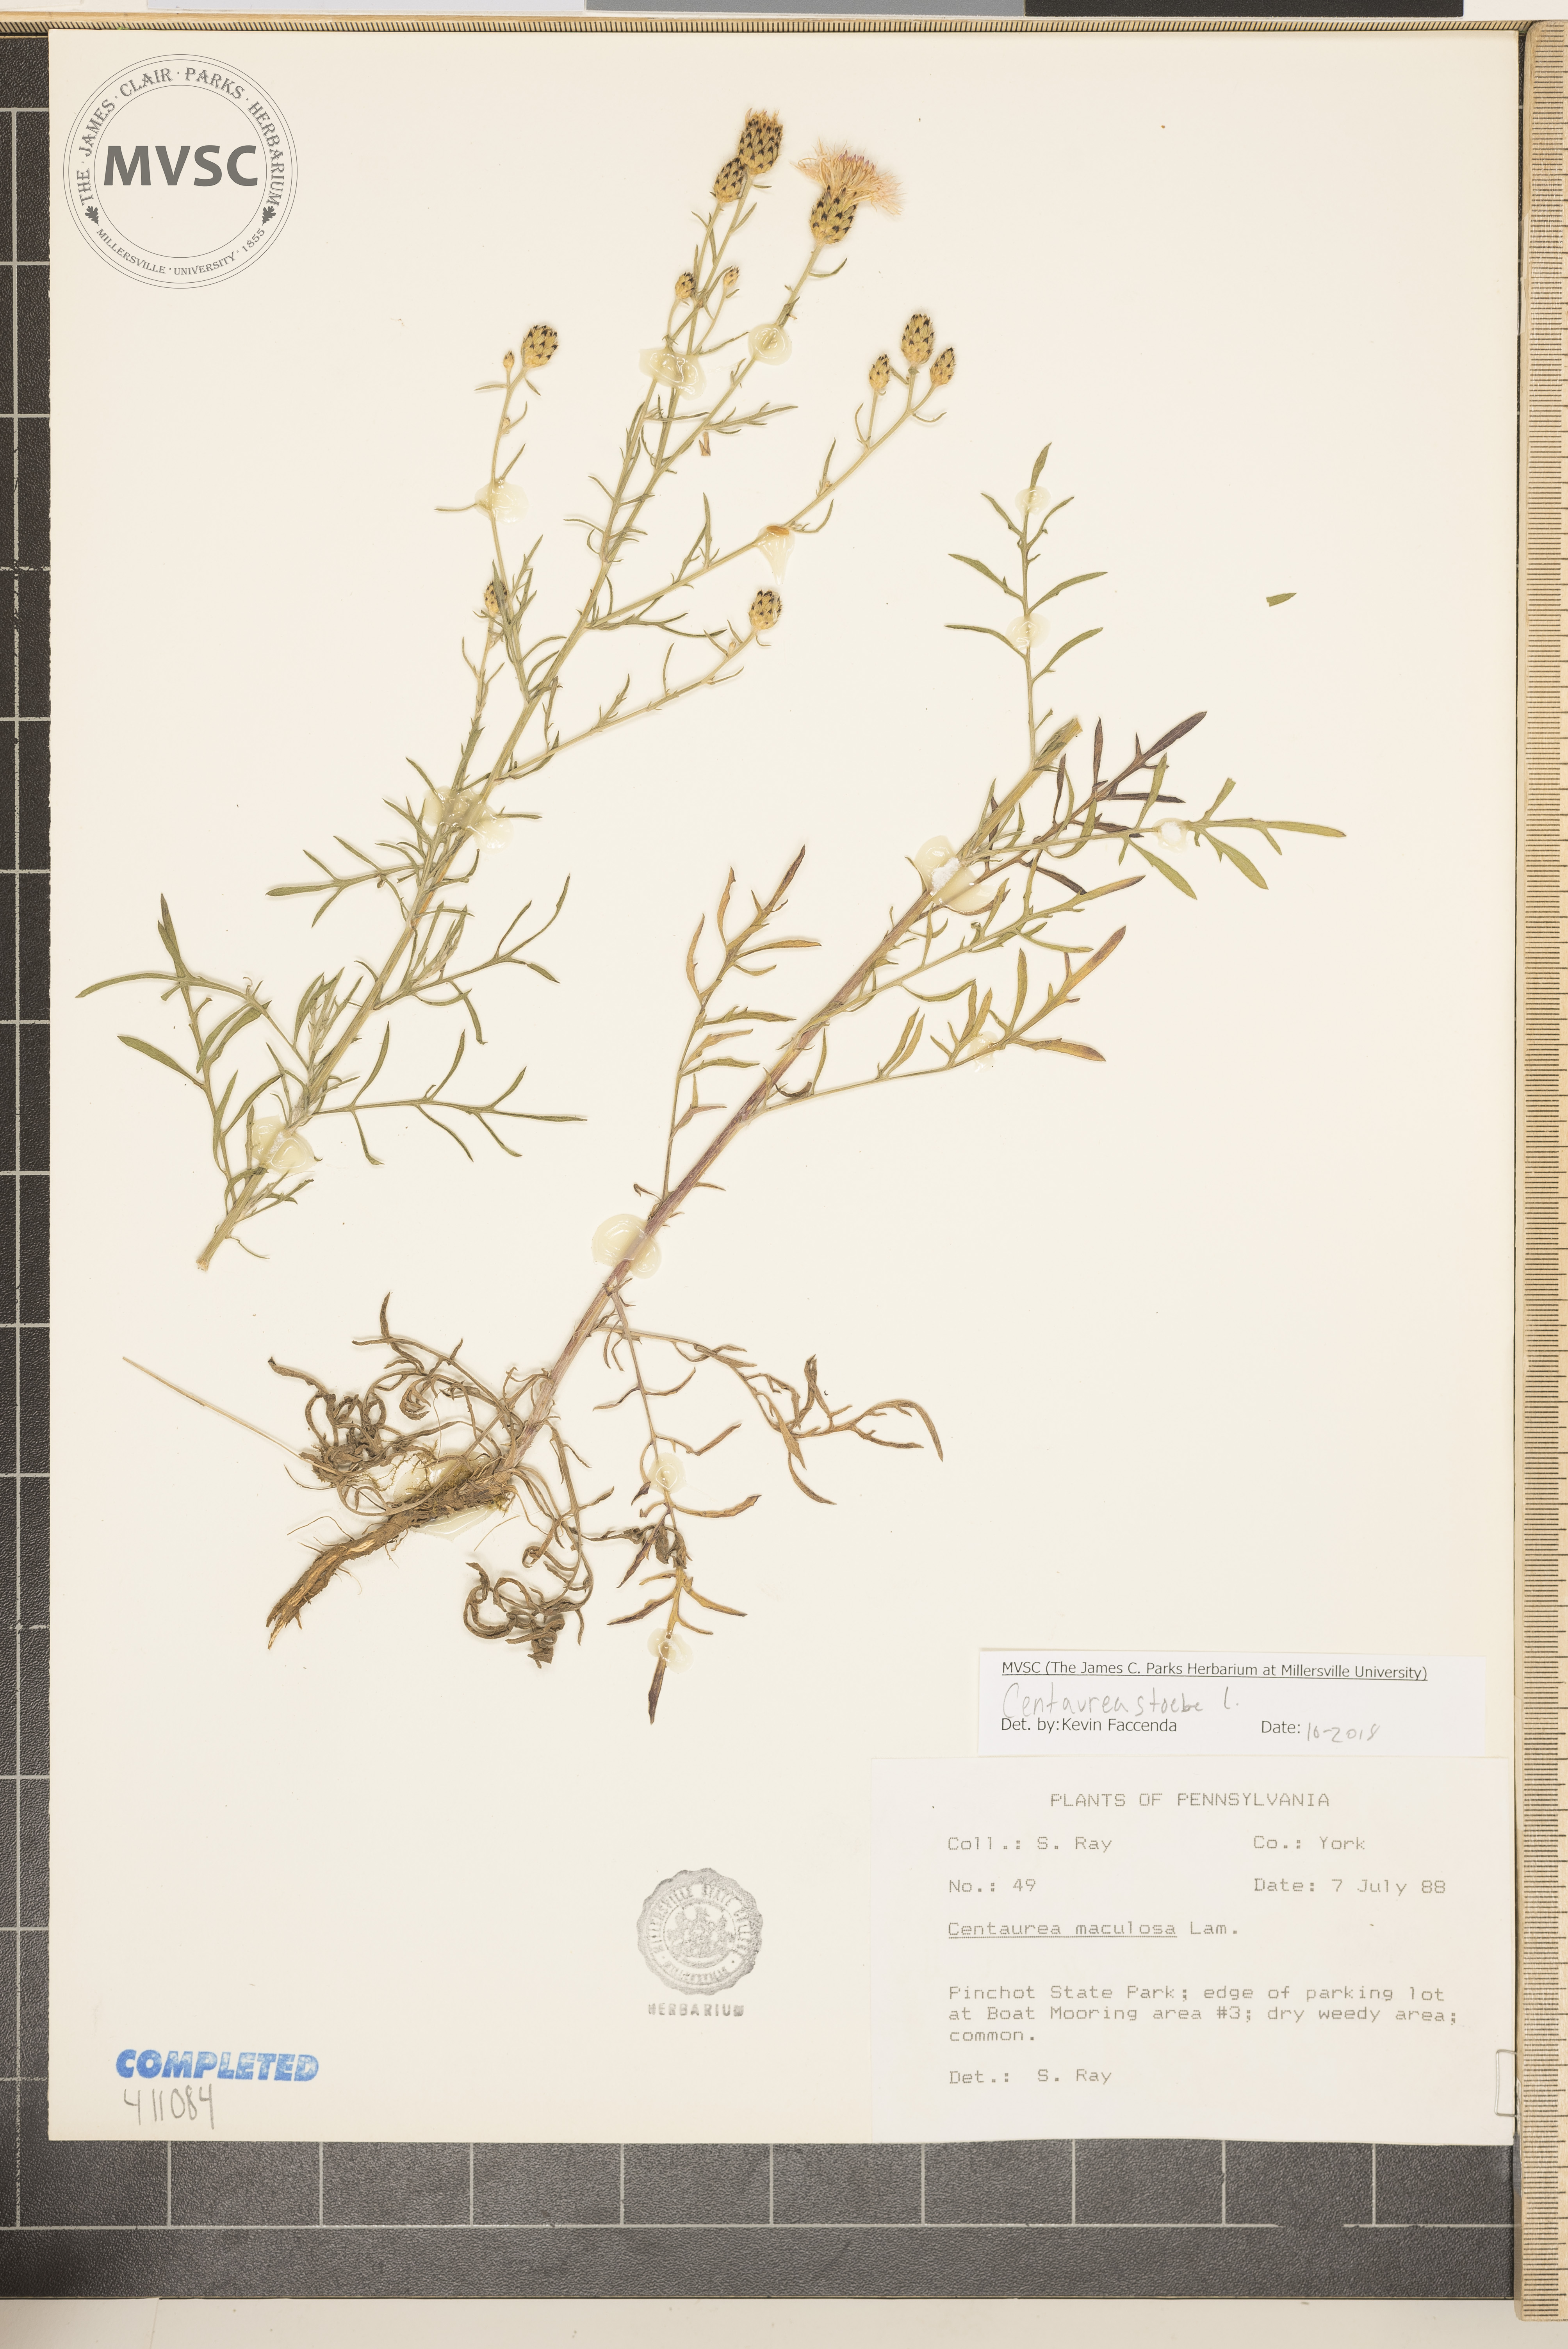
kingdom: Plantae
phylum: Tracheophyta
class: Magnoliopsida
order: Asterales
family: Asteraceae
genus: Centaurea
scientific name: Centaurea stoebe
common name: Spotted knapweed
